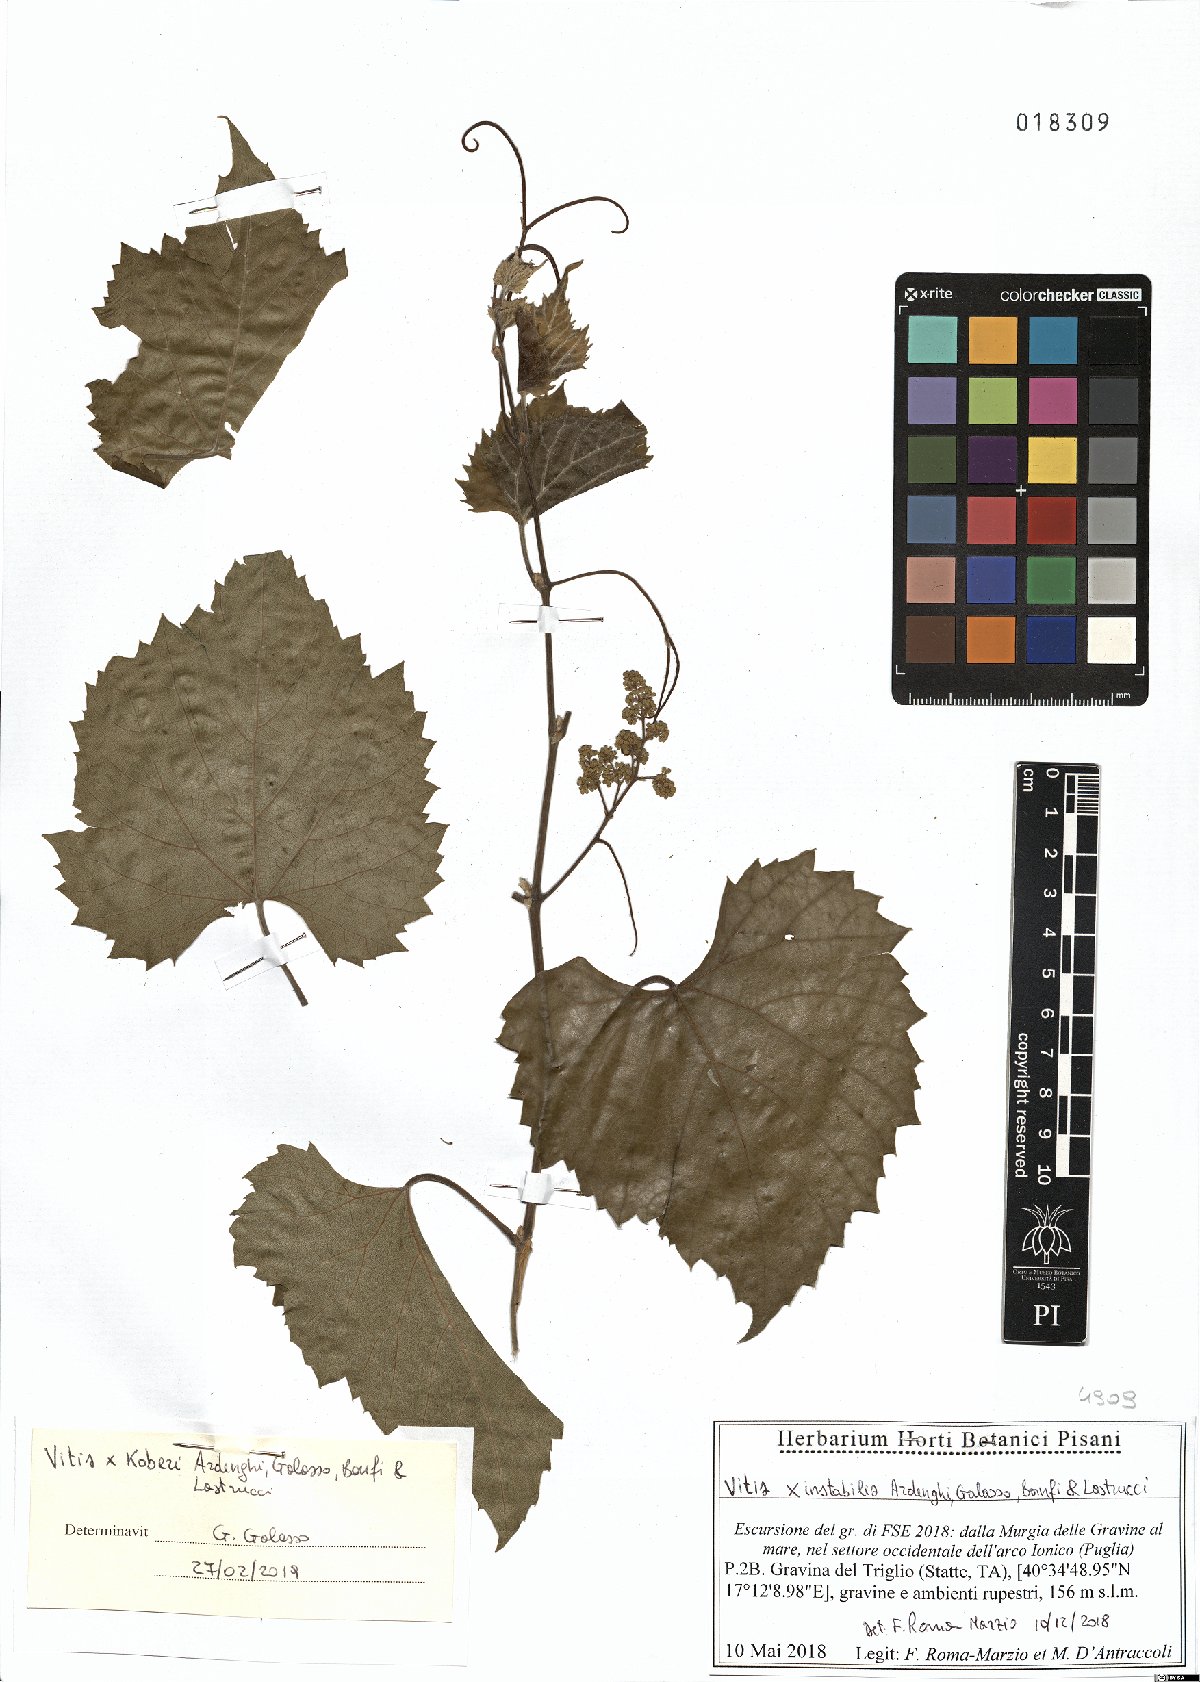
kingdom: Plantae
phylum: Tracheophyta
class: Magnoliopsida
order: Vitales
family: Vitaceae
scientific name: Vitaceae
